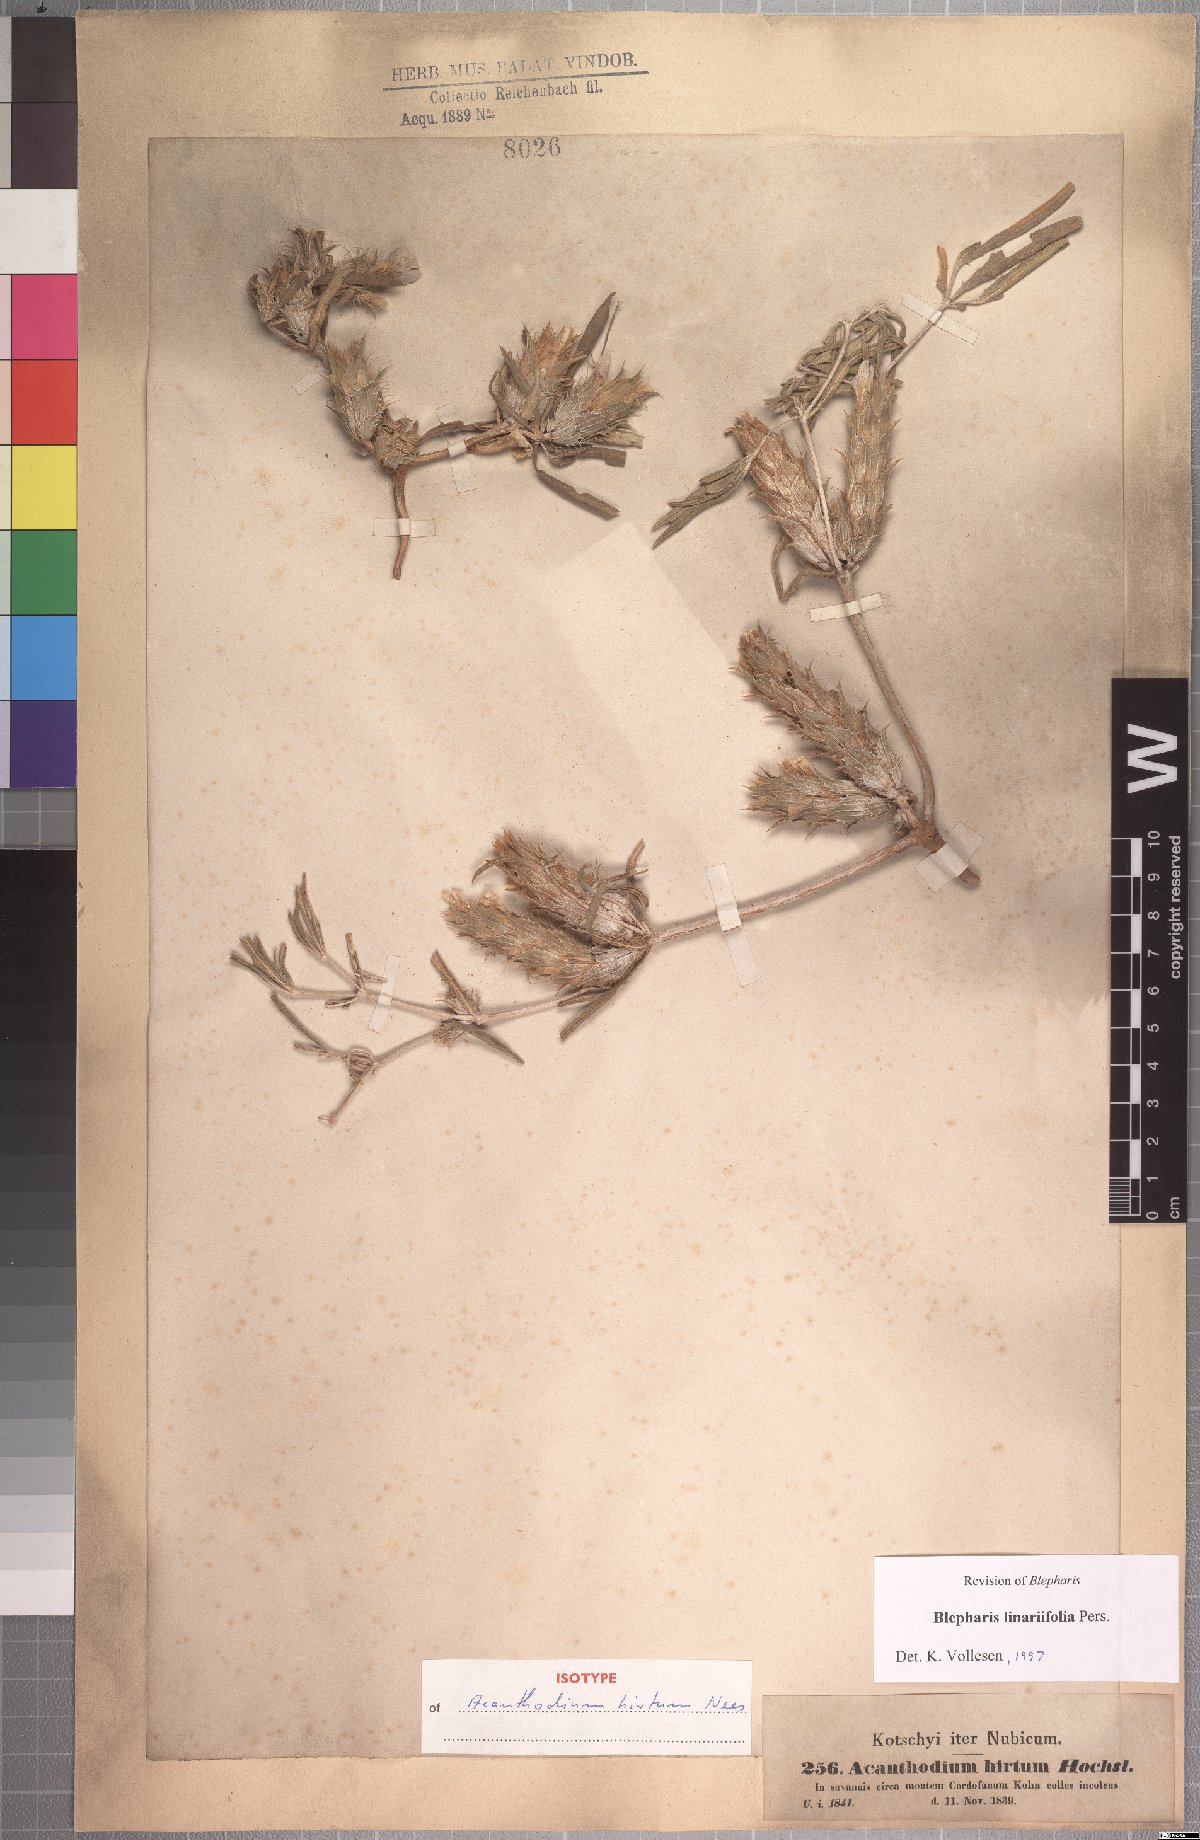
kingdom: Plantae
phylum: Tracheophyta
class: Magnoliopsida
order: Lamiales
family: Acanthaceae
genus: Blepharis
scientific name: Blepharis linariifolia
